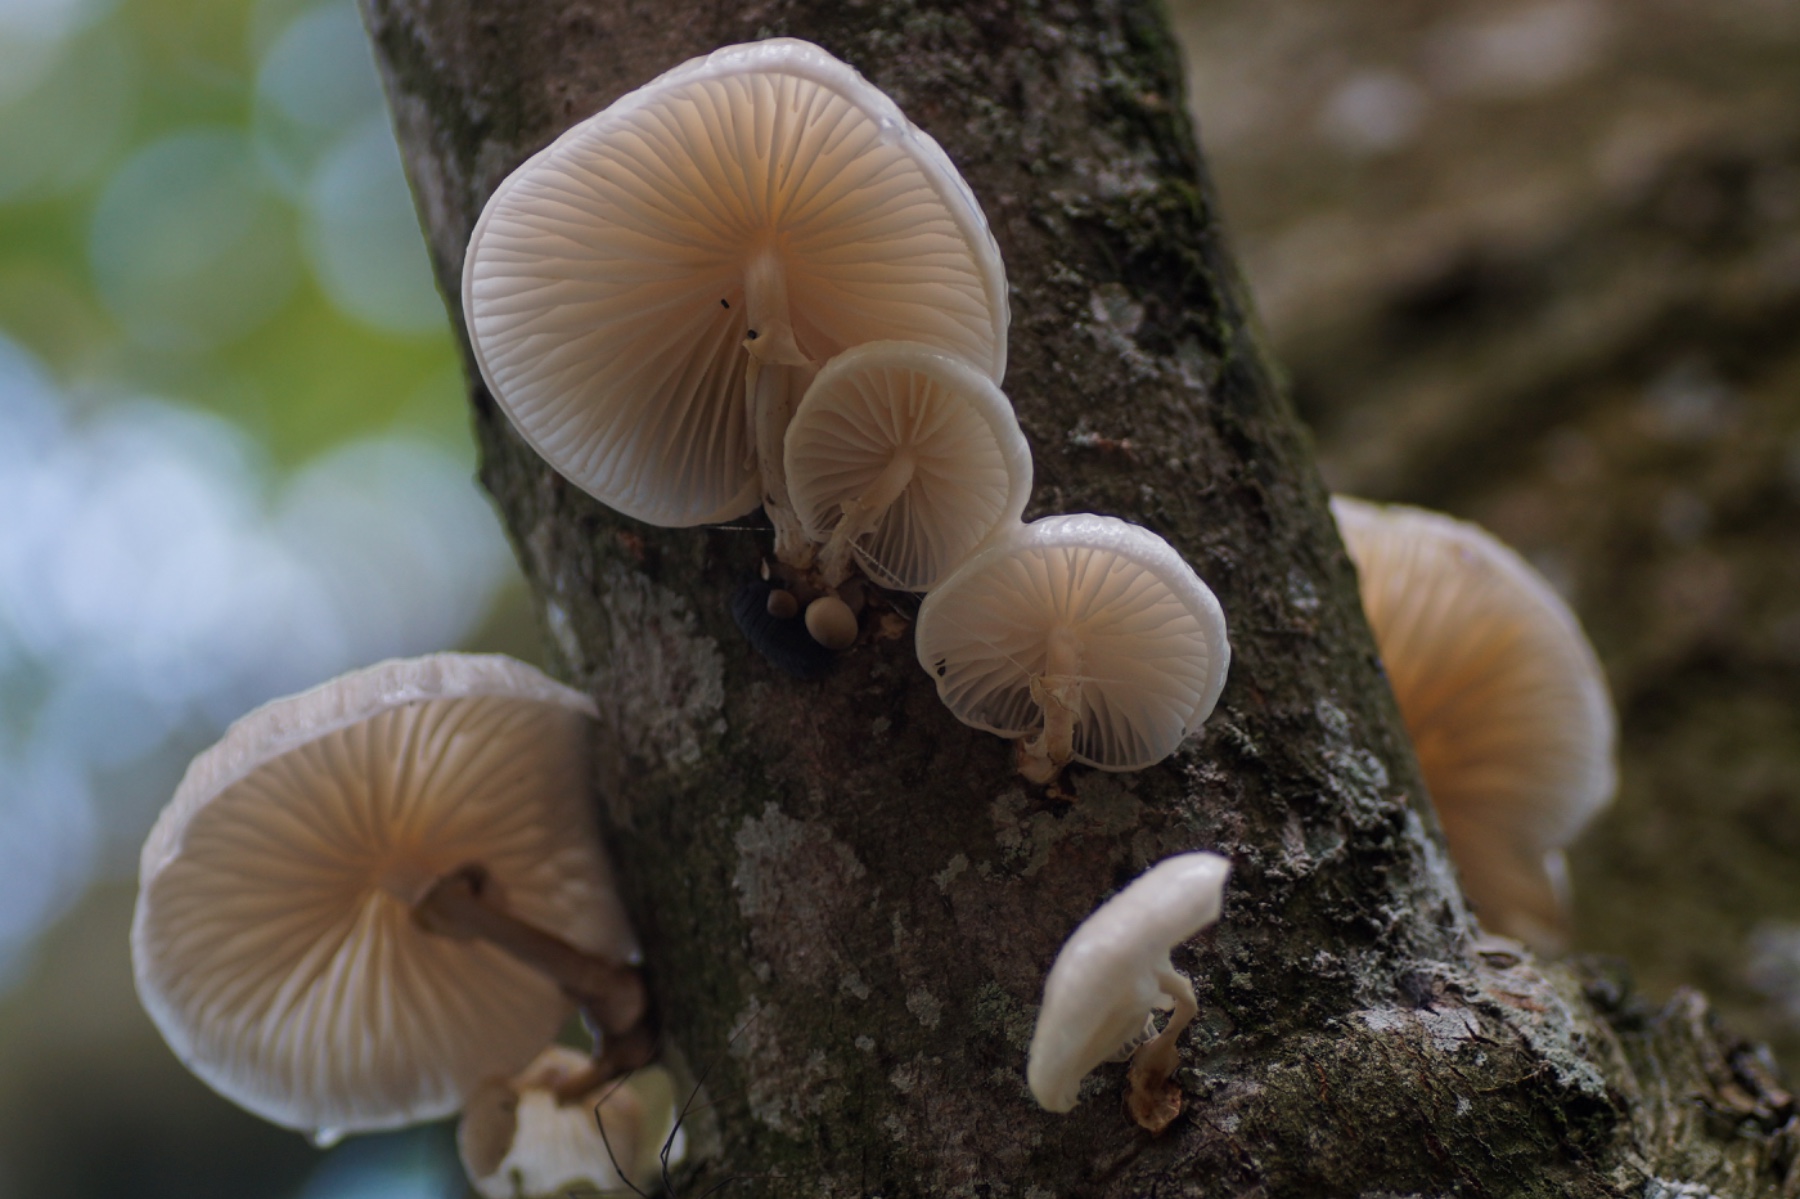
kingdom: Fungi
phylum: Basidiomycota
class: Agaricomycetes
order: Agaricales
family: Physalacriaceae
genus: Mucidula
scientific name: Mucidula mucida
